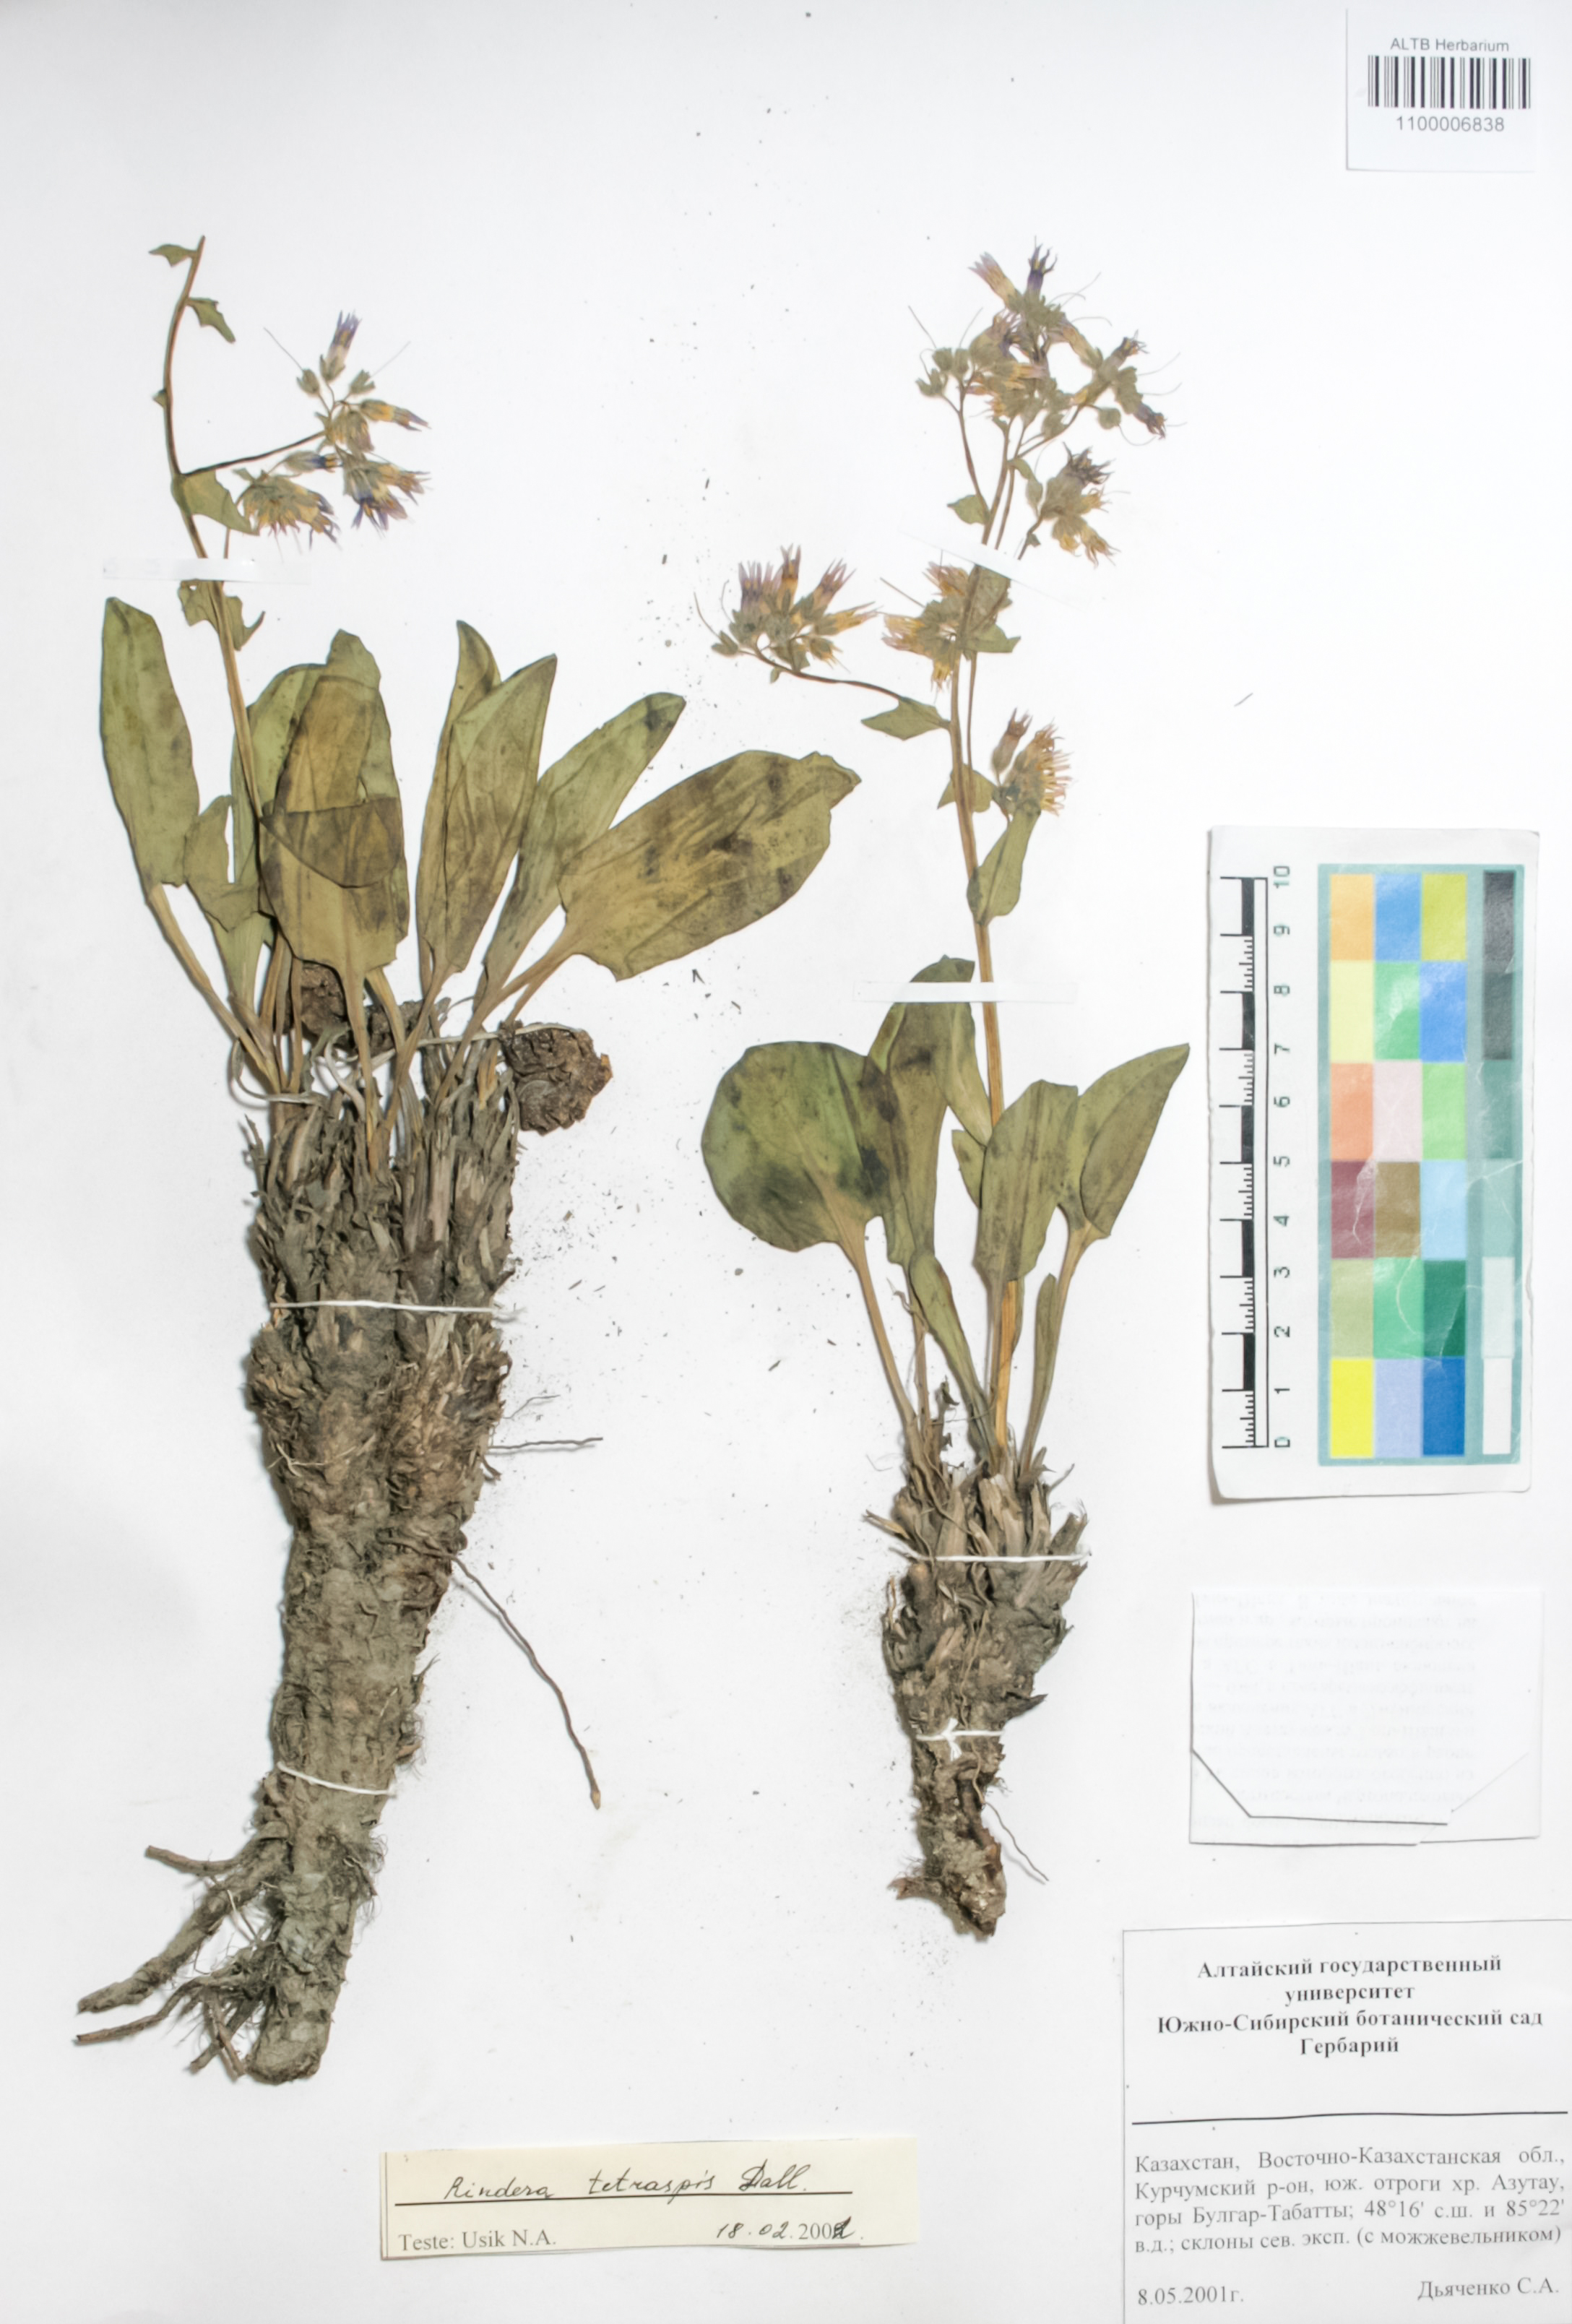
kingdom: Plantae
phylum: Tracheophyta
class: Magnoliopsida
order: Boraginales
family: Boraginaceae
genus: Rindera
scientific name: Rindera tetraspis
